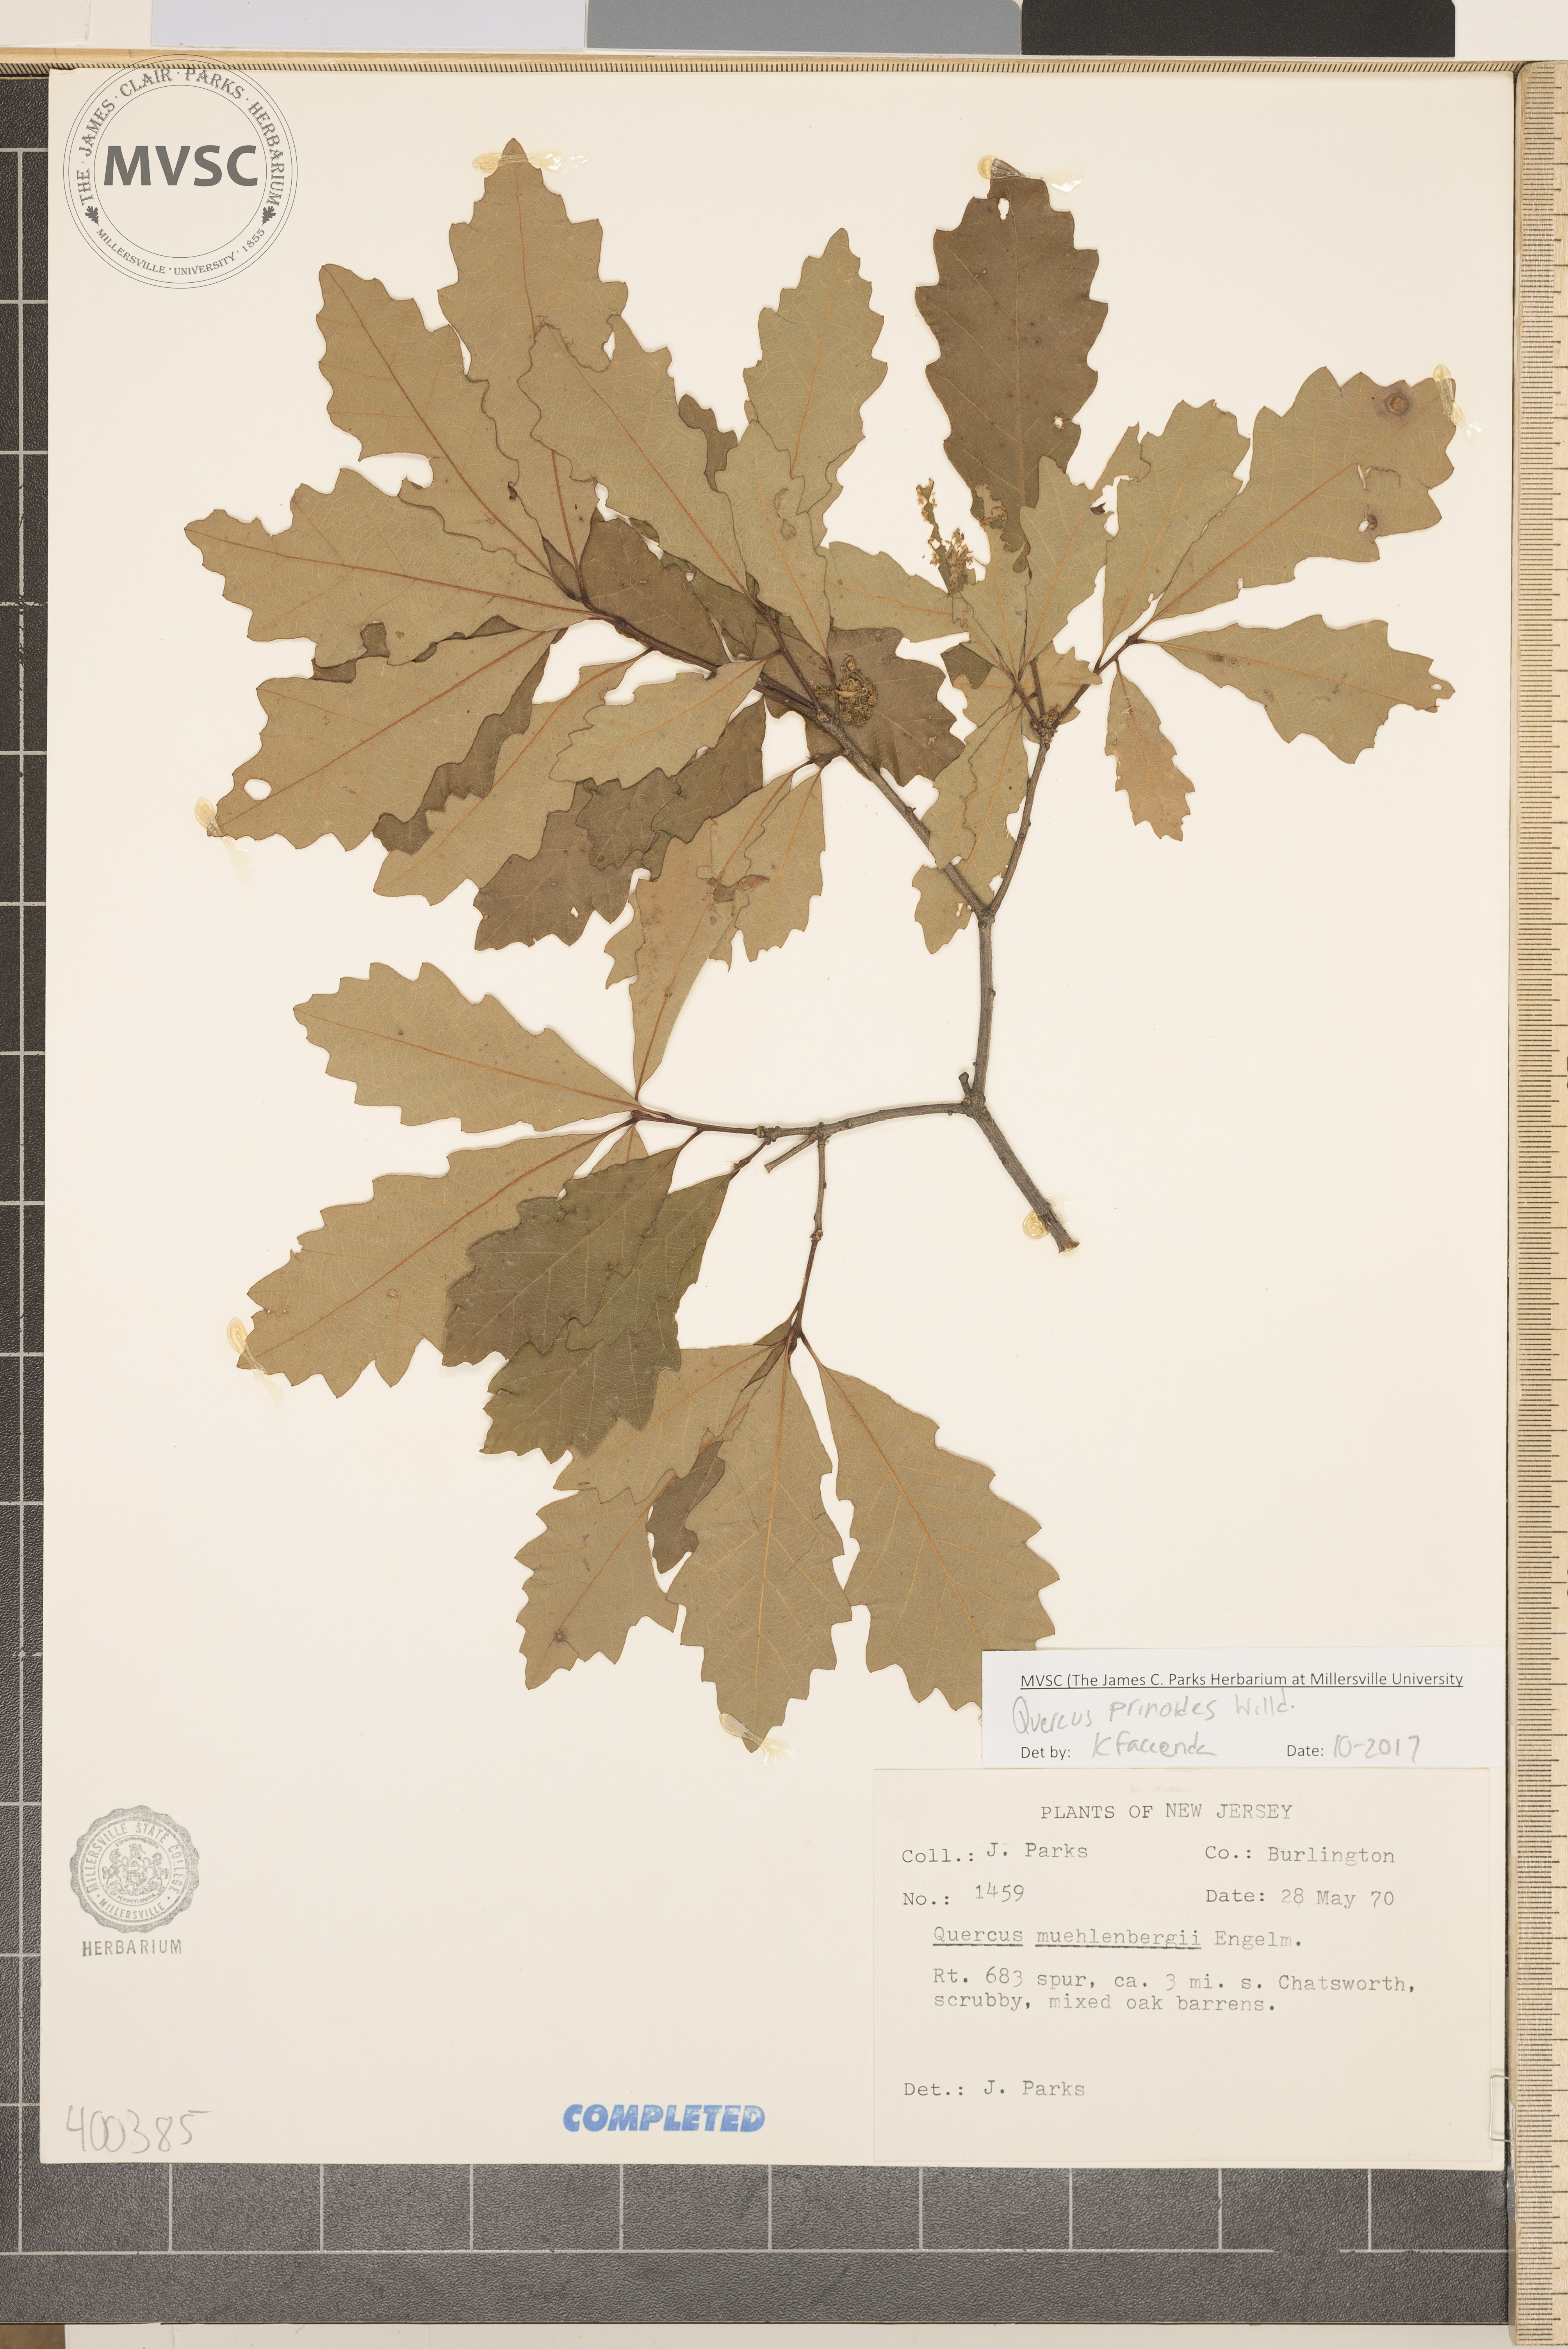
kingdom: Plantae
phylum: Tracheophyta
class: Magnoliopsida
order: Fagales
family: Fagaceae
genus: Quercus
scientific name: Quercus prinoides
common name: Dwarf chinkapin oak
